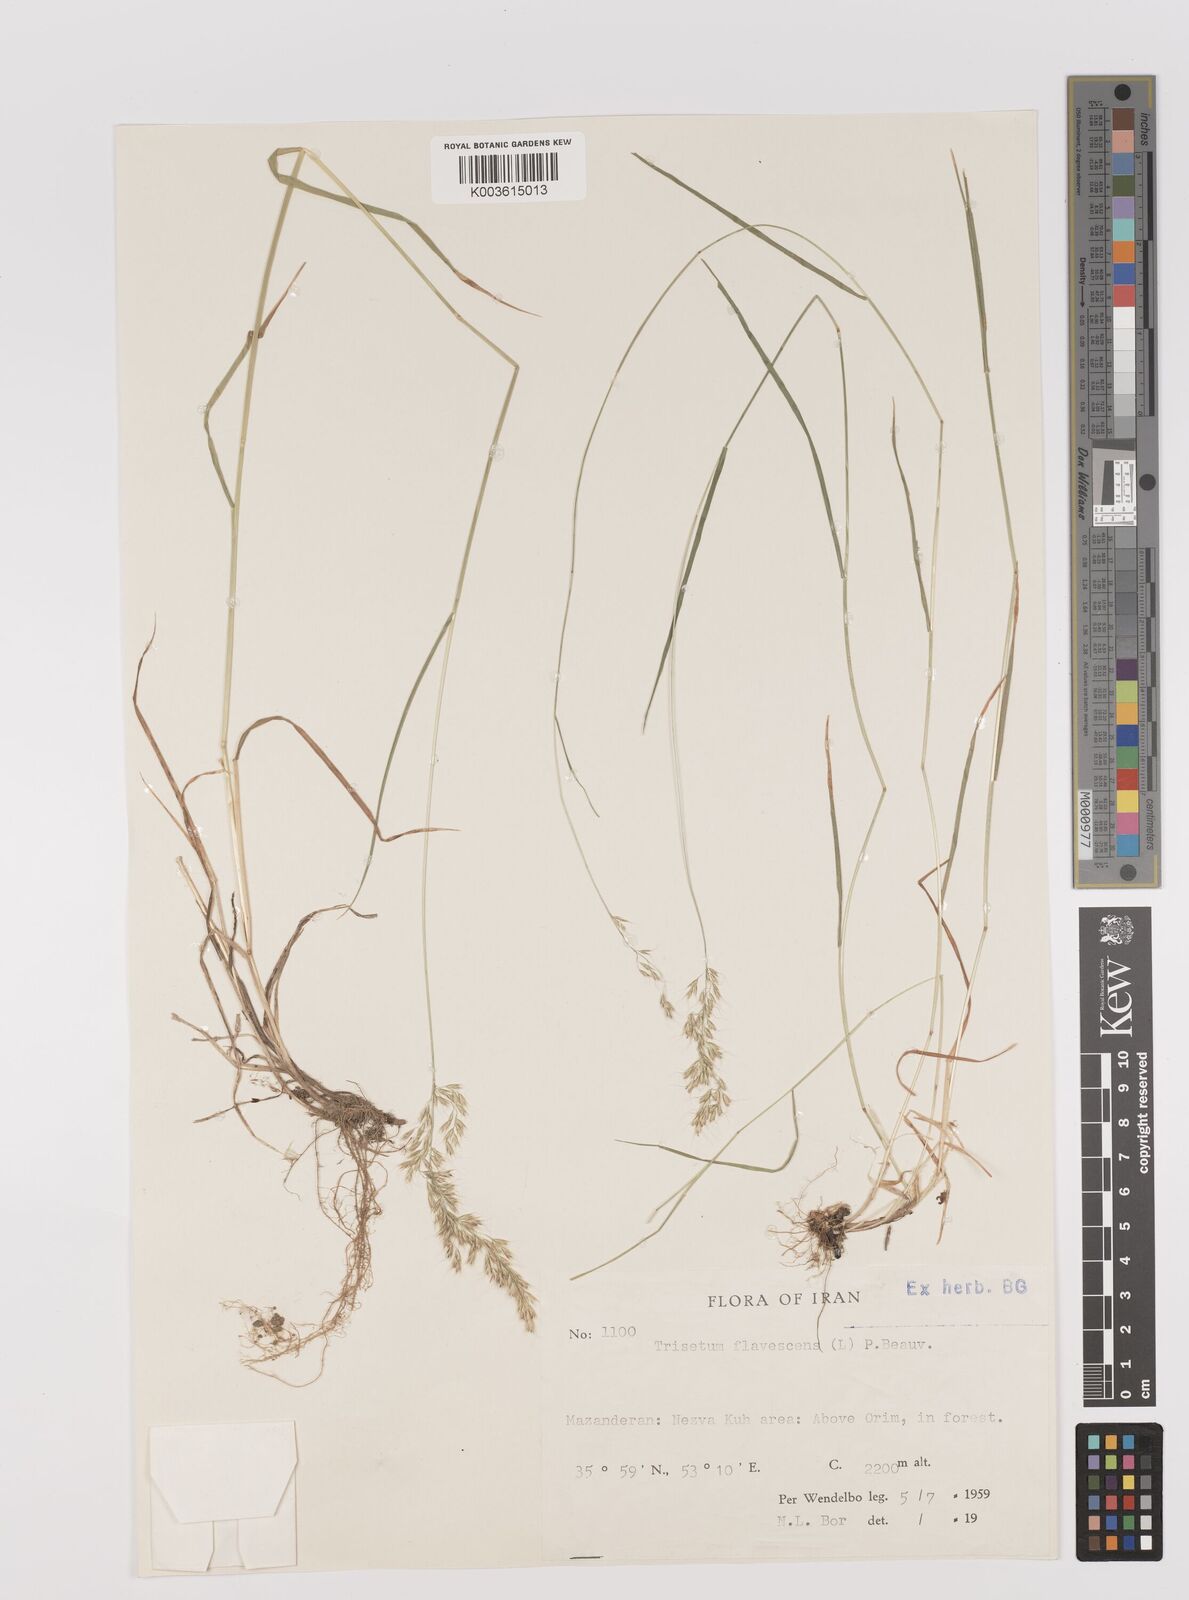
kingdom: Plantae
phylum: Tracheophyta
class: Liliopsida
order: Poales
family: Poaceae
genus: Trisetum
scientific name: Trisetum flavescens
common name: Yellow oat-grass
